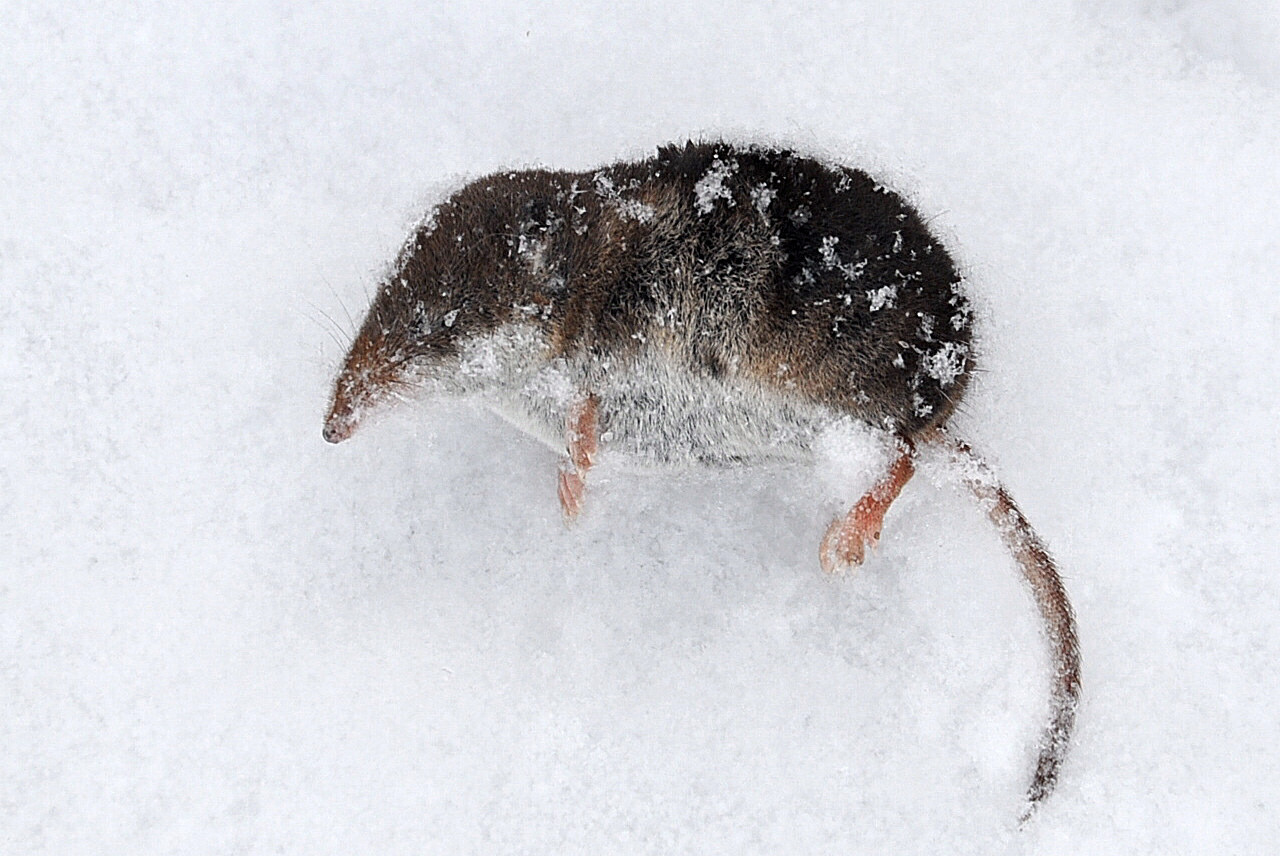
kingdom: Animalia
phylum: Chordata
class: Mammalia
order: Soricomorpha
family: Soricidae
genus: Sorex
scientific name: Sorex araneus
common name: Common shrew
